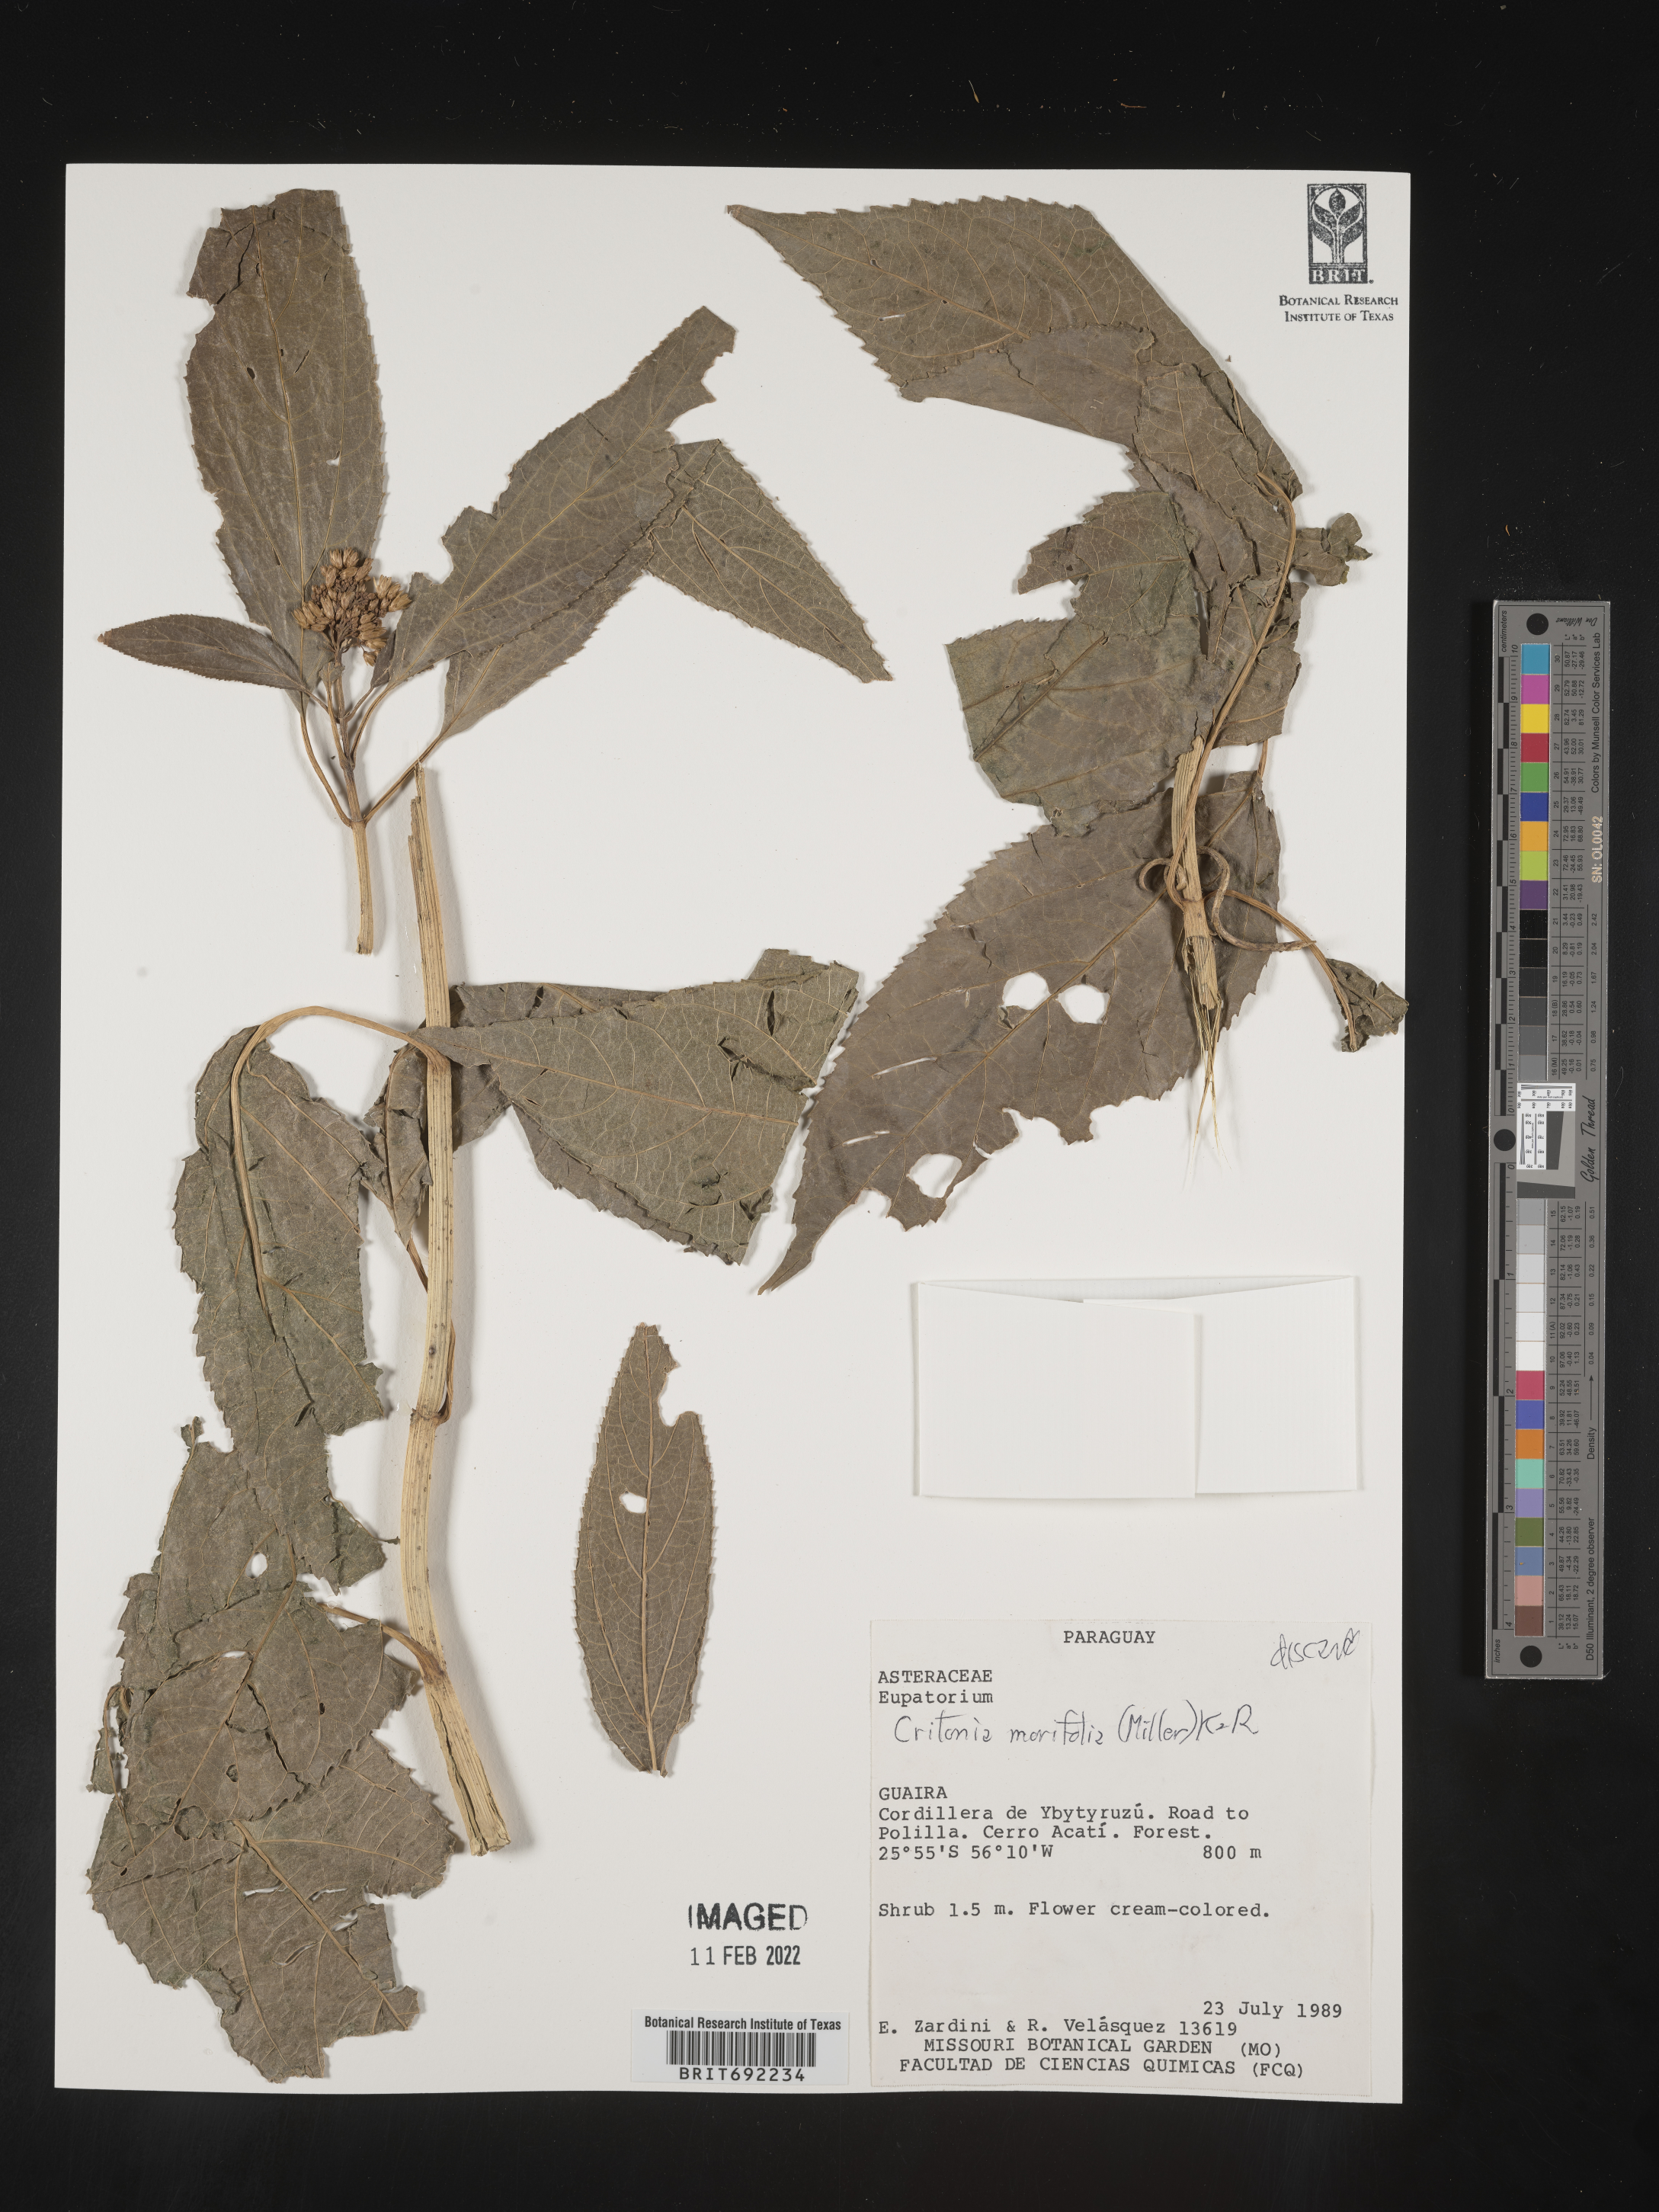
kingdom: Plantae
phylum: Tracheophyta
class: Magnoliopsida
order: Asterales
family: Asteraceae
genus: Critonia
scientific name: Critonia
